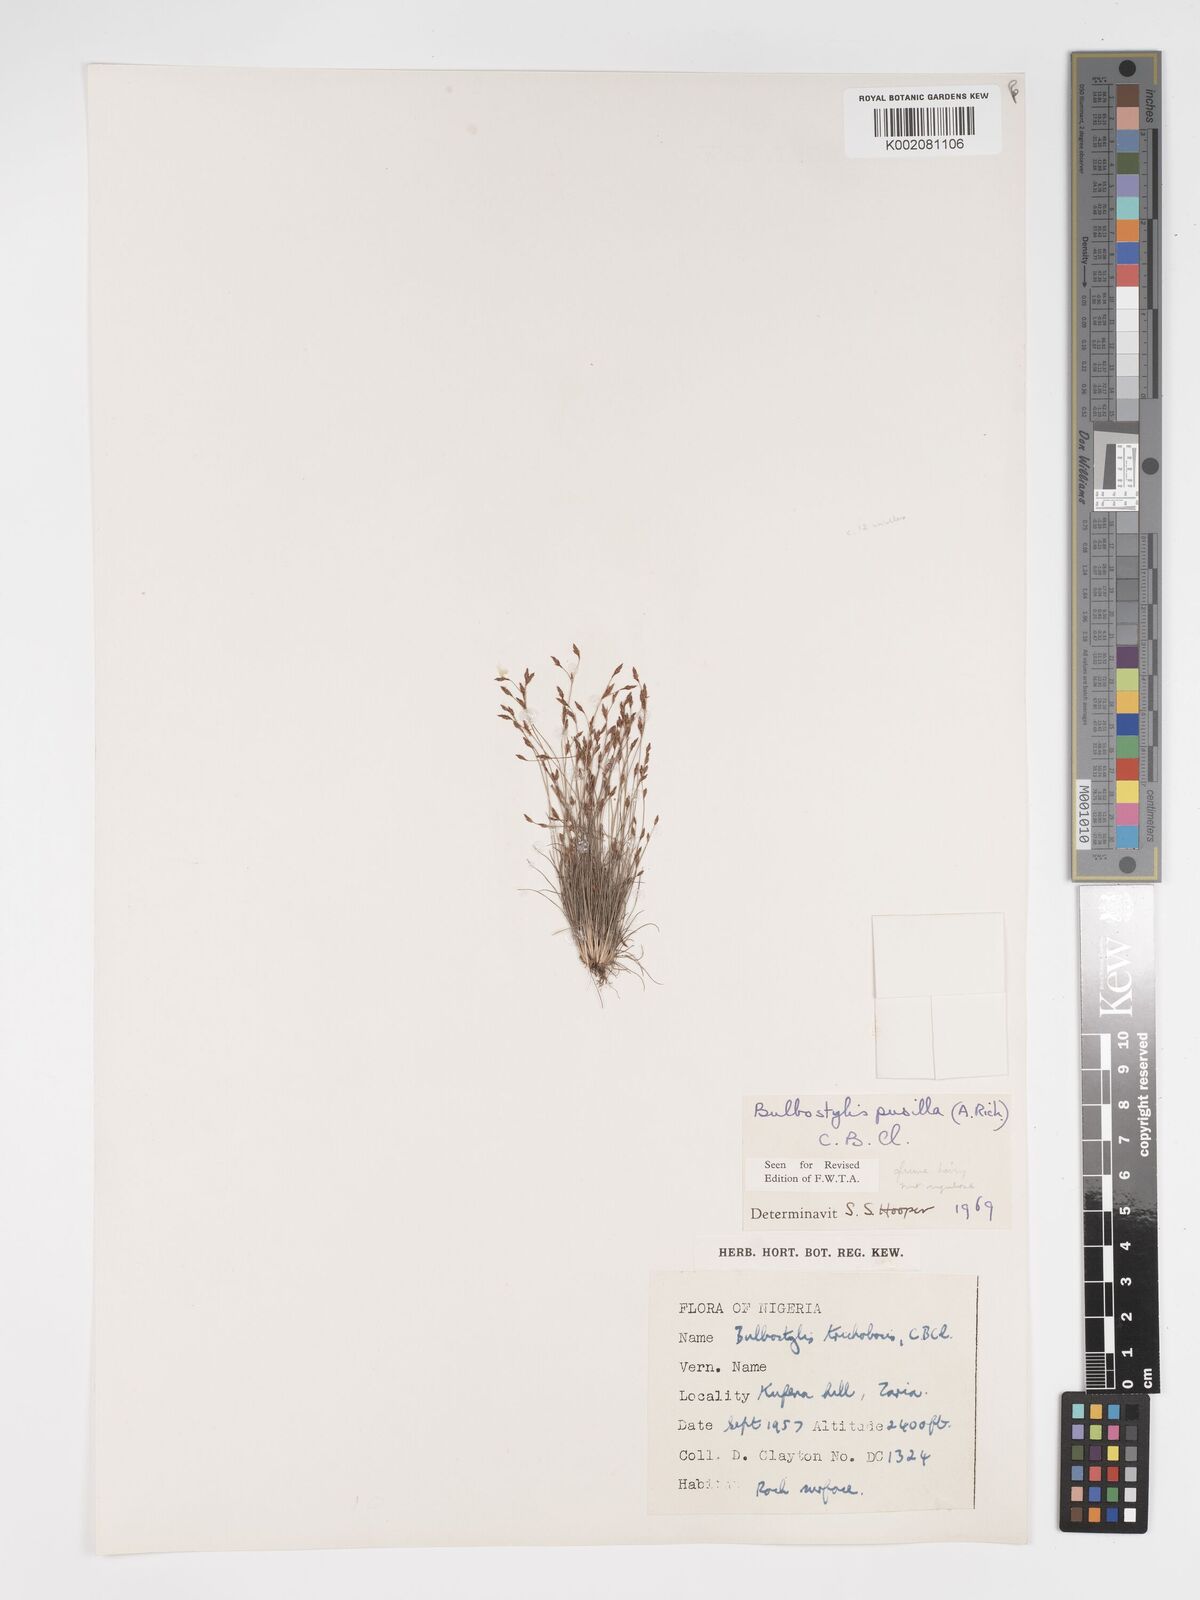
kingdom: Plantae
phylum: Tracheophyta
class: Liliopsida
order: Poales
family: Cyperaceae
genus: Bulbostylis
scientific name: Bulbostylis pusilla
